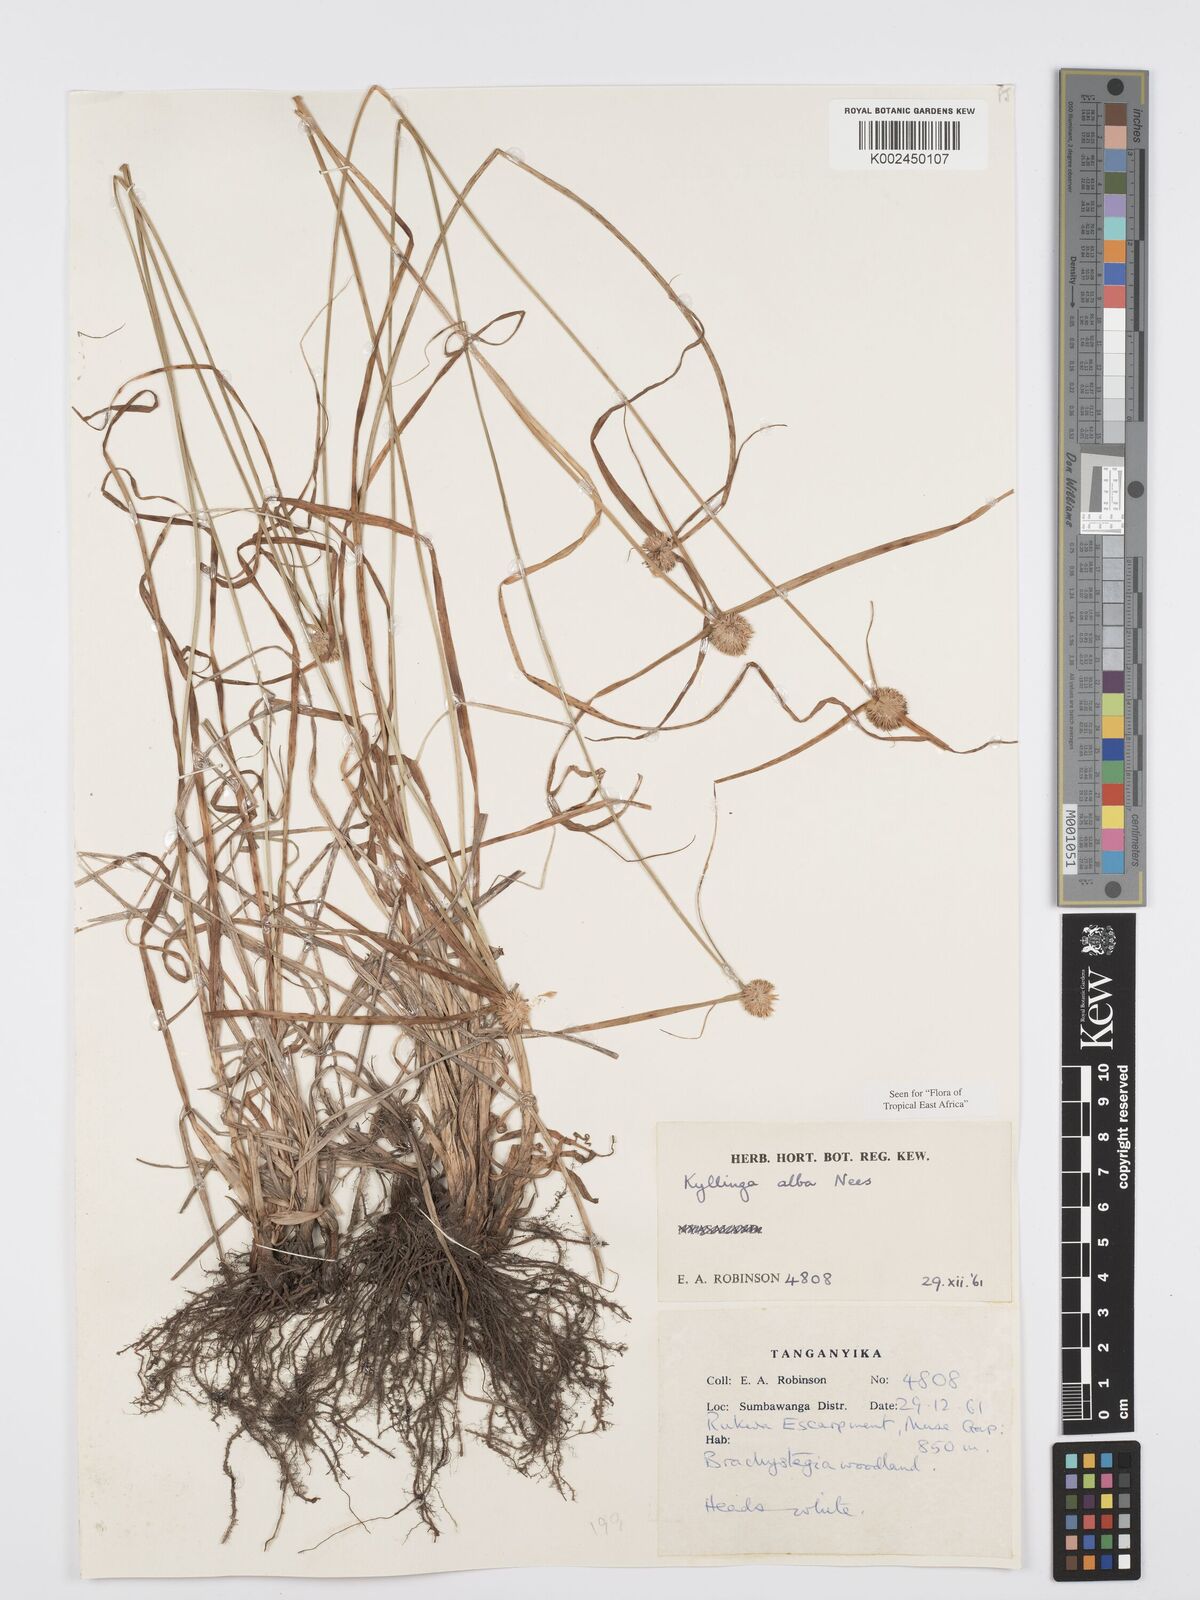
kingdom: Plantae
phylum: Tracheophyta
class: Liliopsida
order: Poales
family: Cyperaceae
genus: Cyperus
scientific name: Cyperus
